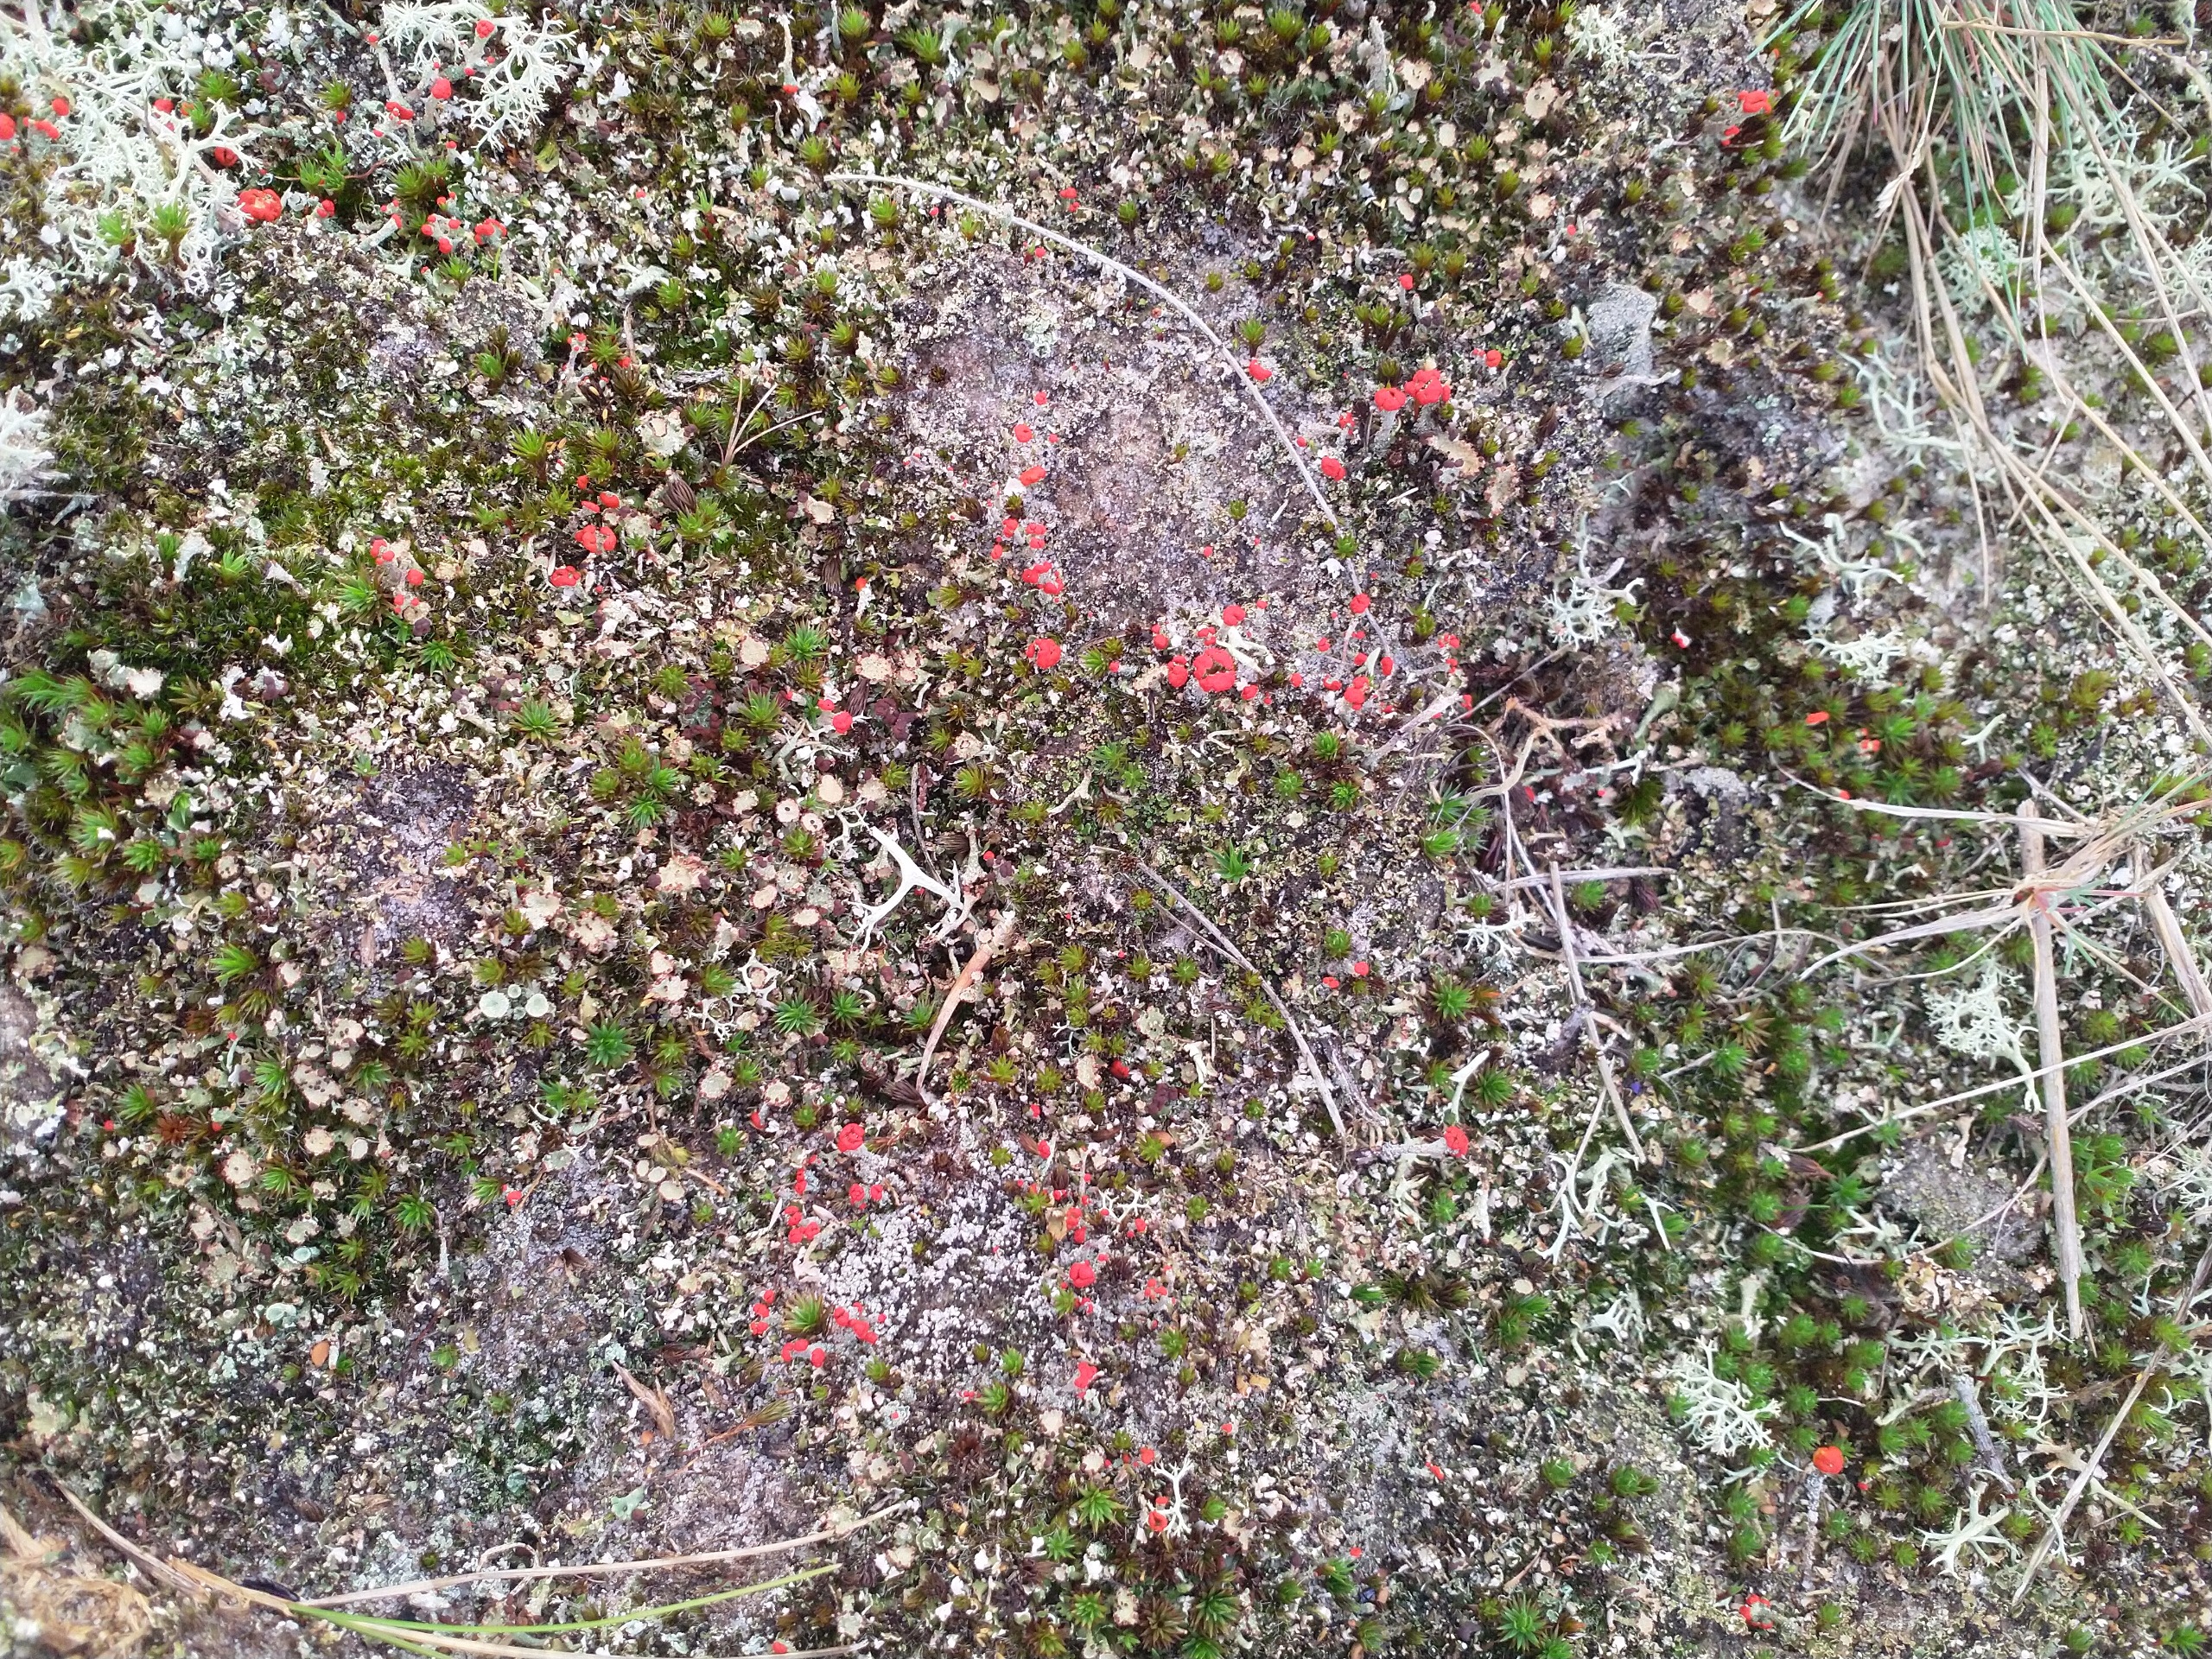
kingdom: Fungi
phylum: Ascomycota
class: Lecanoromycetes
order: Lecanorales
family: Cladoniaceae
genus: Cladonia
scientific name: Cladonia floerkeana
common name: Lakrød bægerlav
